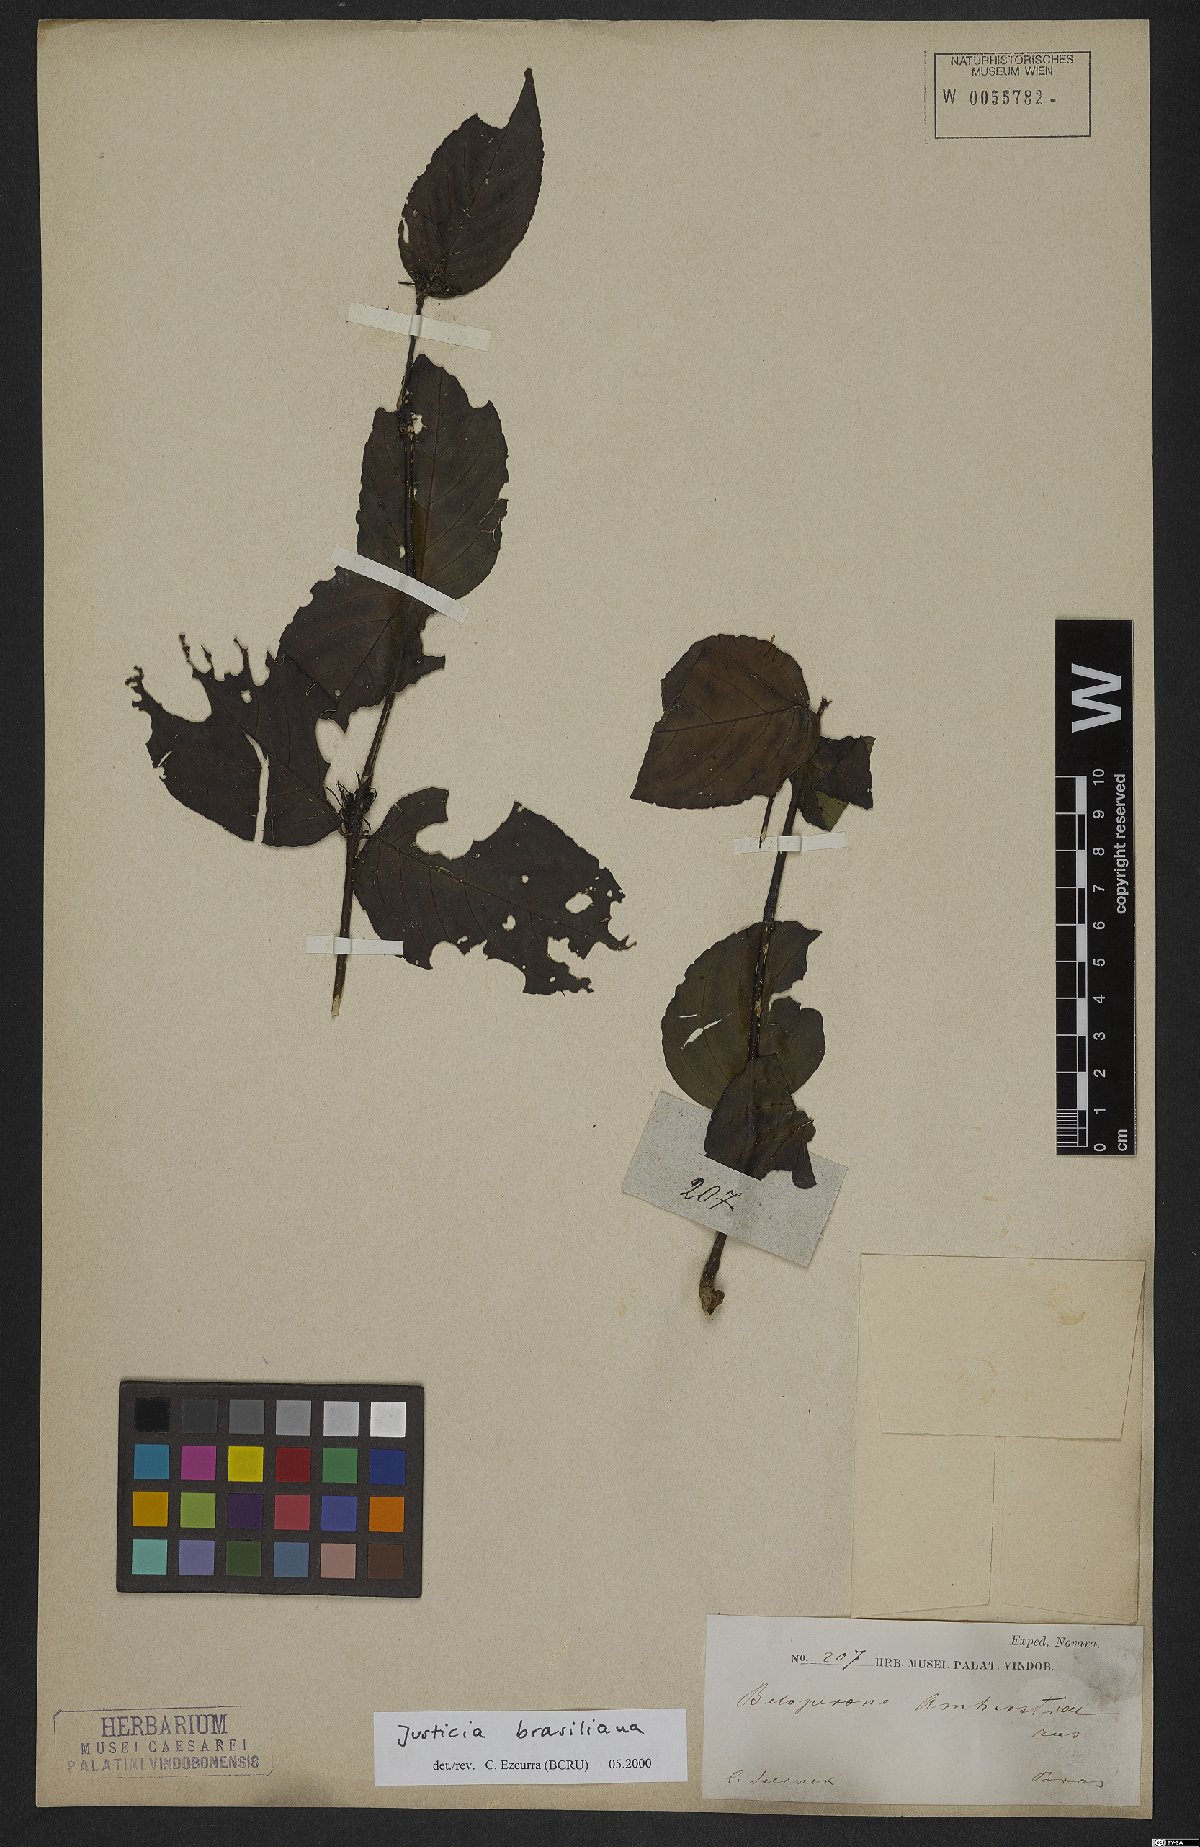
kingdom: Plantae
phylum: Tracheophyta
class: Magnoliopsida
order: Lamiales
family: Acanthaceae
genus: Justicia
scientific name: Justicia brasiliana
